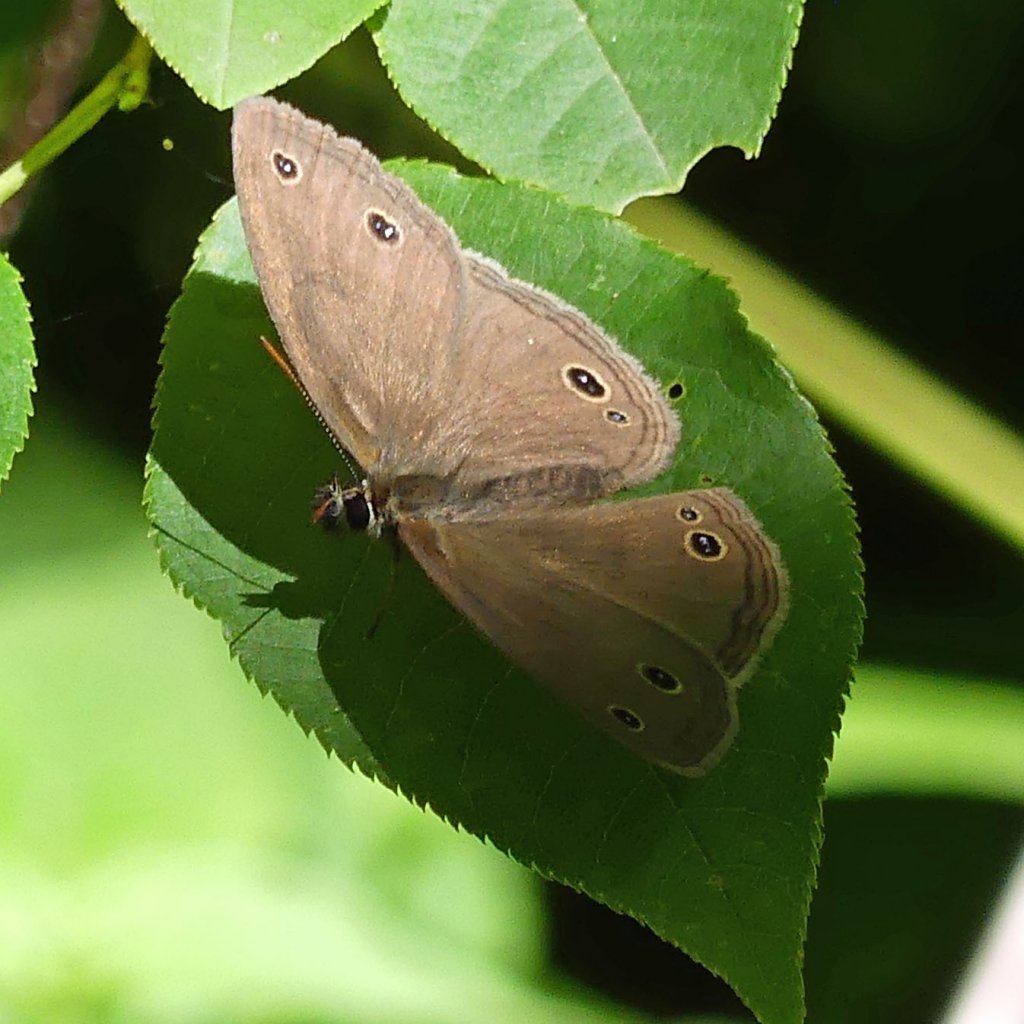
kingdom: Animalia
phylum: Arthropoda
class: Insecta
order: Lepidoptera
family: Nymphalidae
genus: Euptychia
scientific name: Euptychia cymela
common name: Little Wood Satyr
